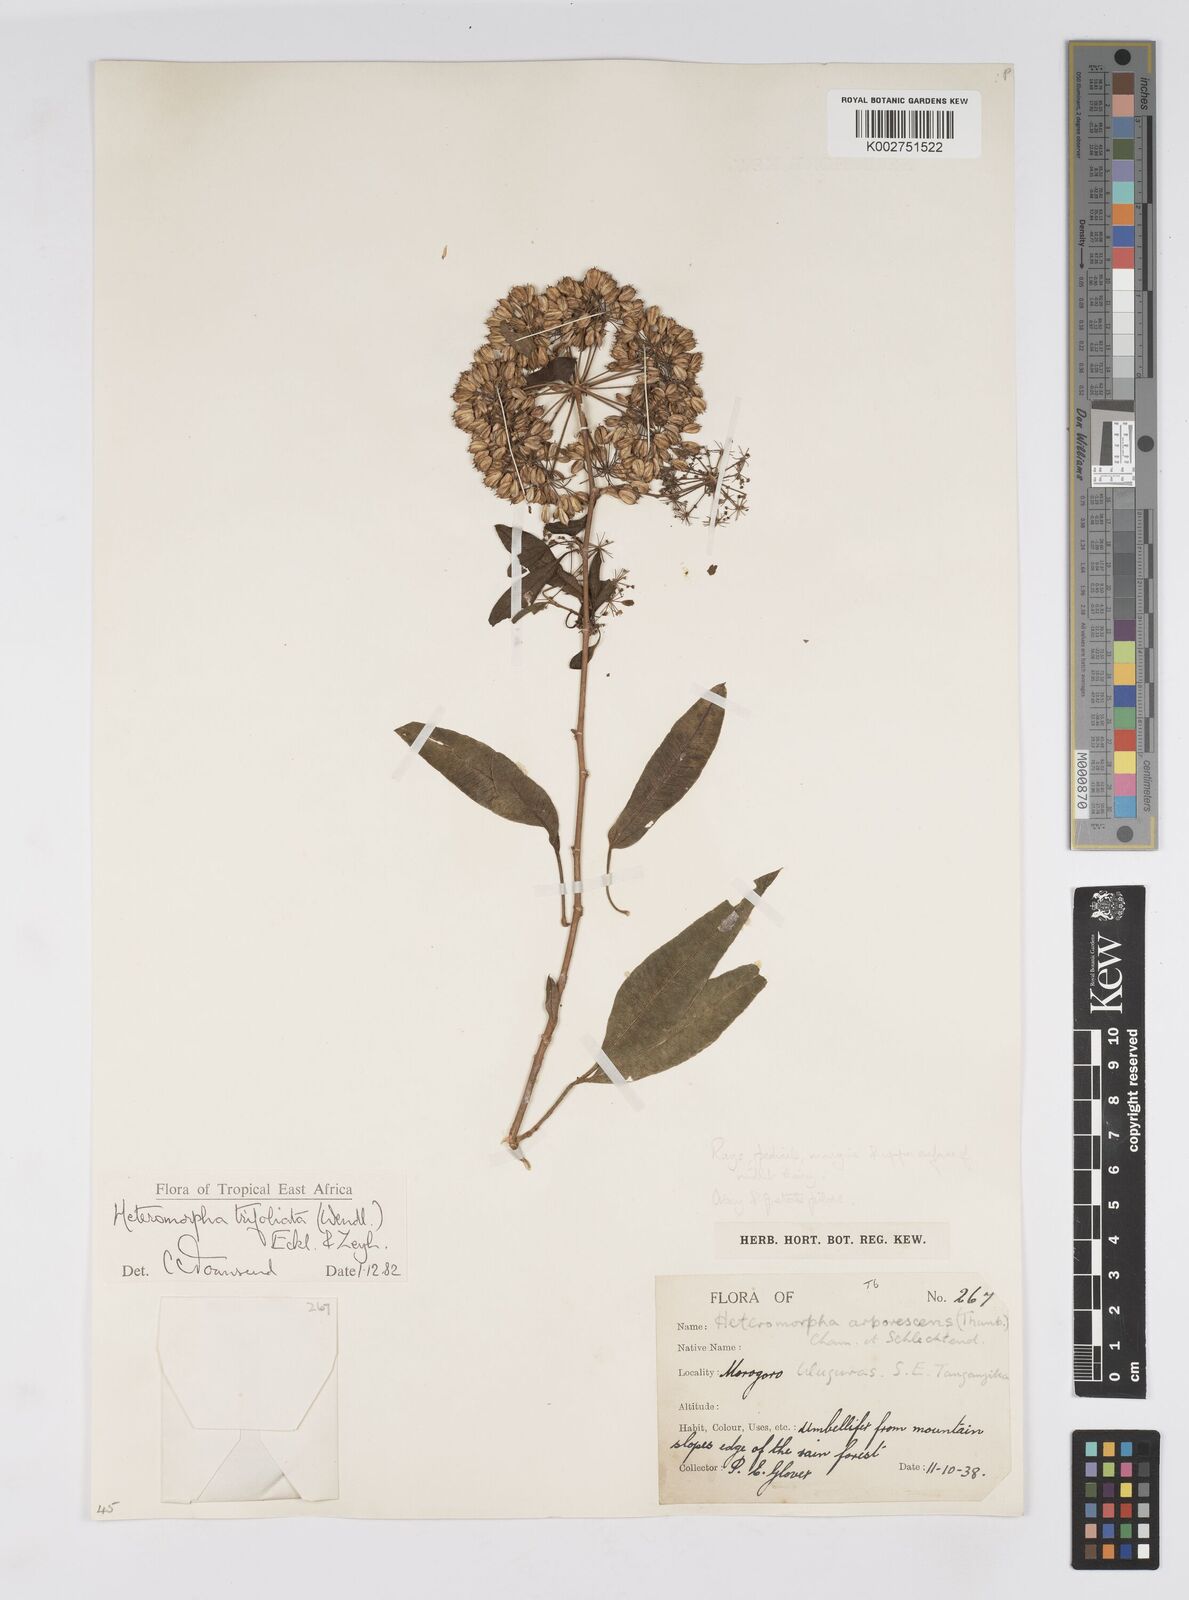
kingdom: Plantae
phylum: Tracheophyta
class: Magnoliopsida
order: Apiales
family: Apiaceae
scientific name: Apiaceae
